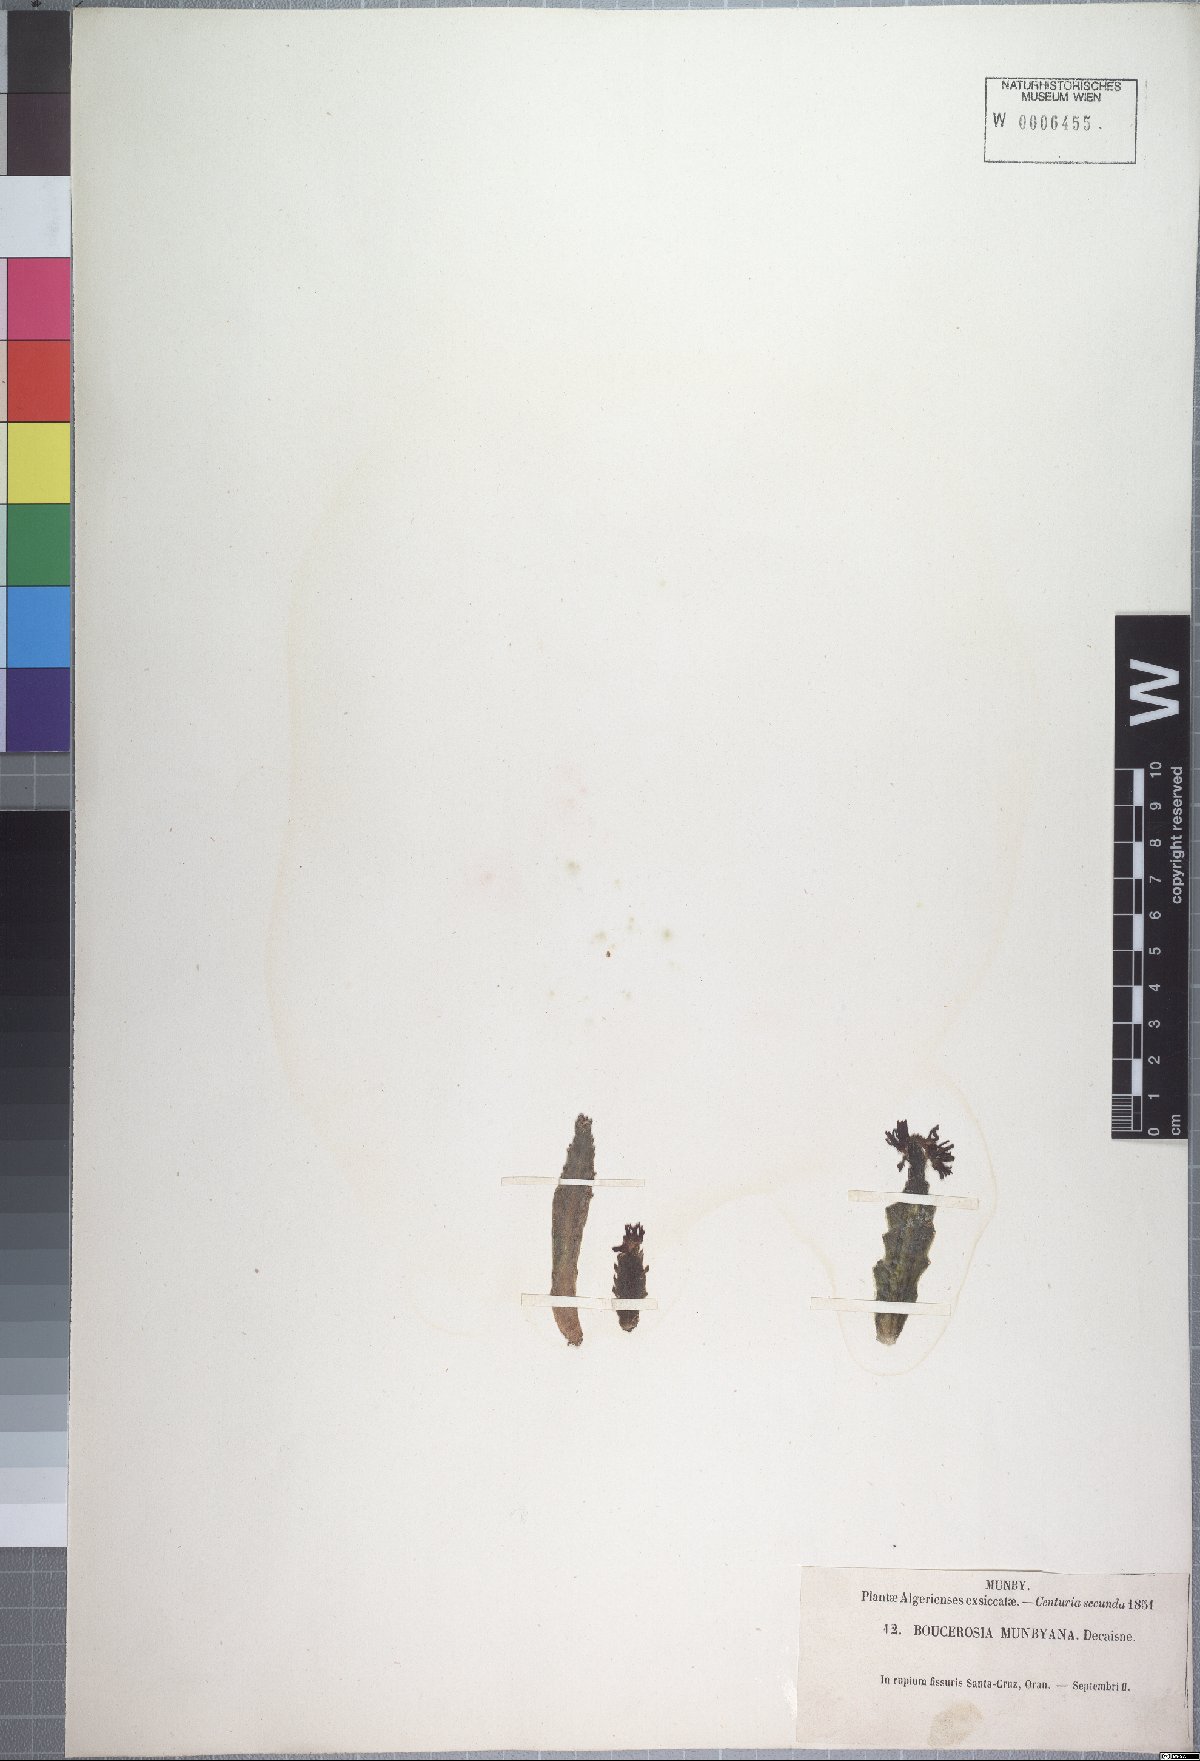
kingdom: Plantae
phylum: Tracheophyta
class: Magnoliopsida
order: Gentianales
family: Apocynaceae
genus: Ceropegia
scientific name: Ceropegia munbyana
